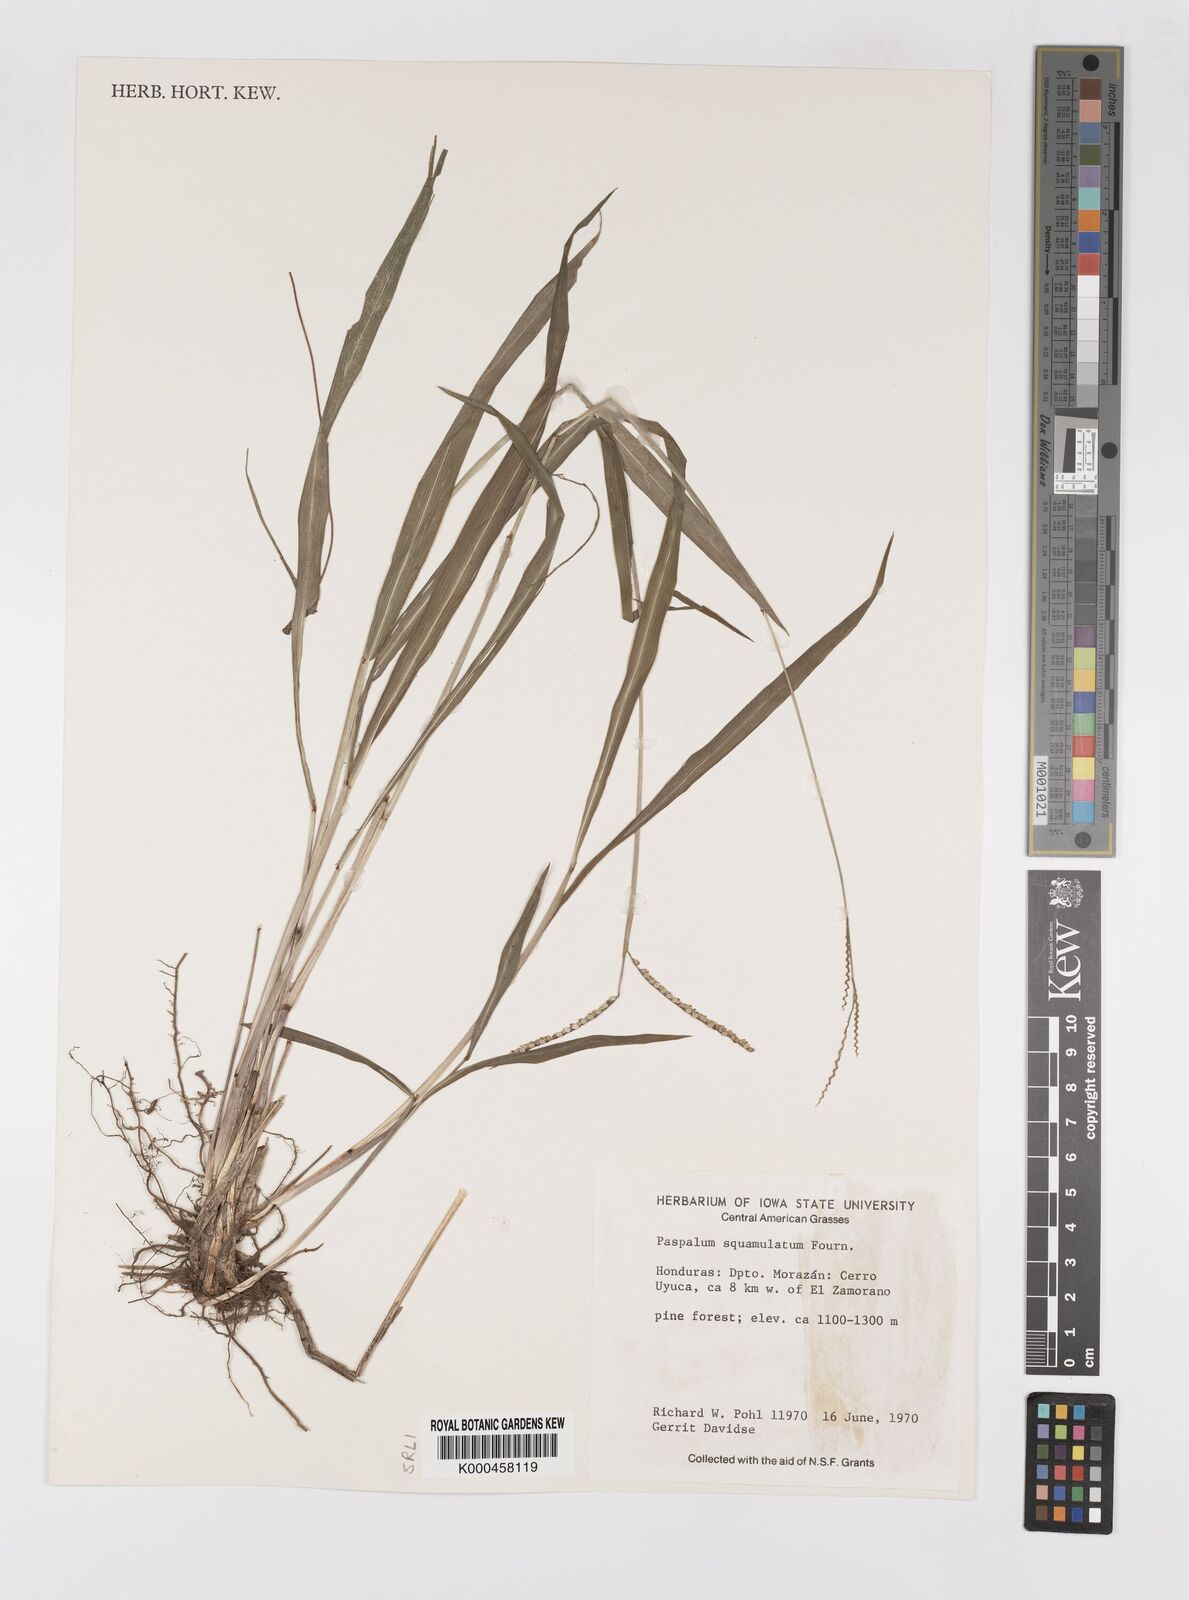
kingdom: Plantae
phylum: Tracheophyta
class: Liliopsida
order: Poales
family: Poaceae
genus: Paspalum
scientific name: Paspalum
